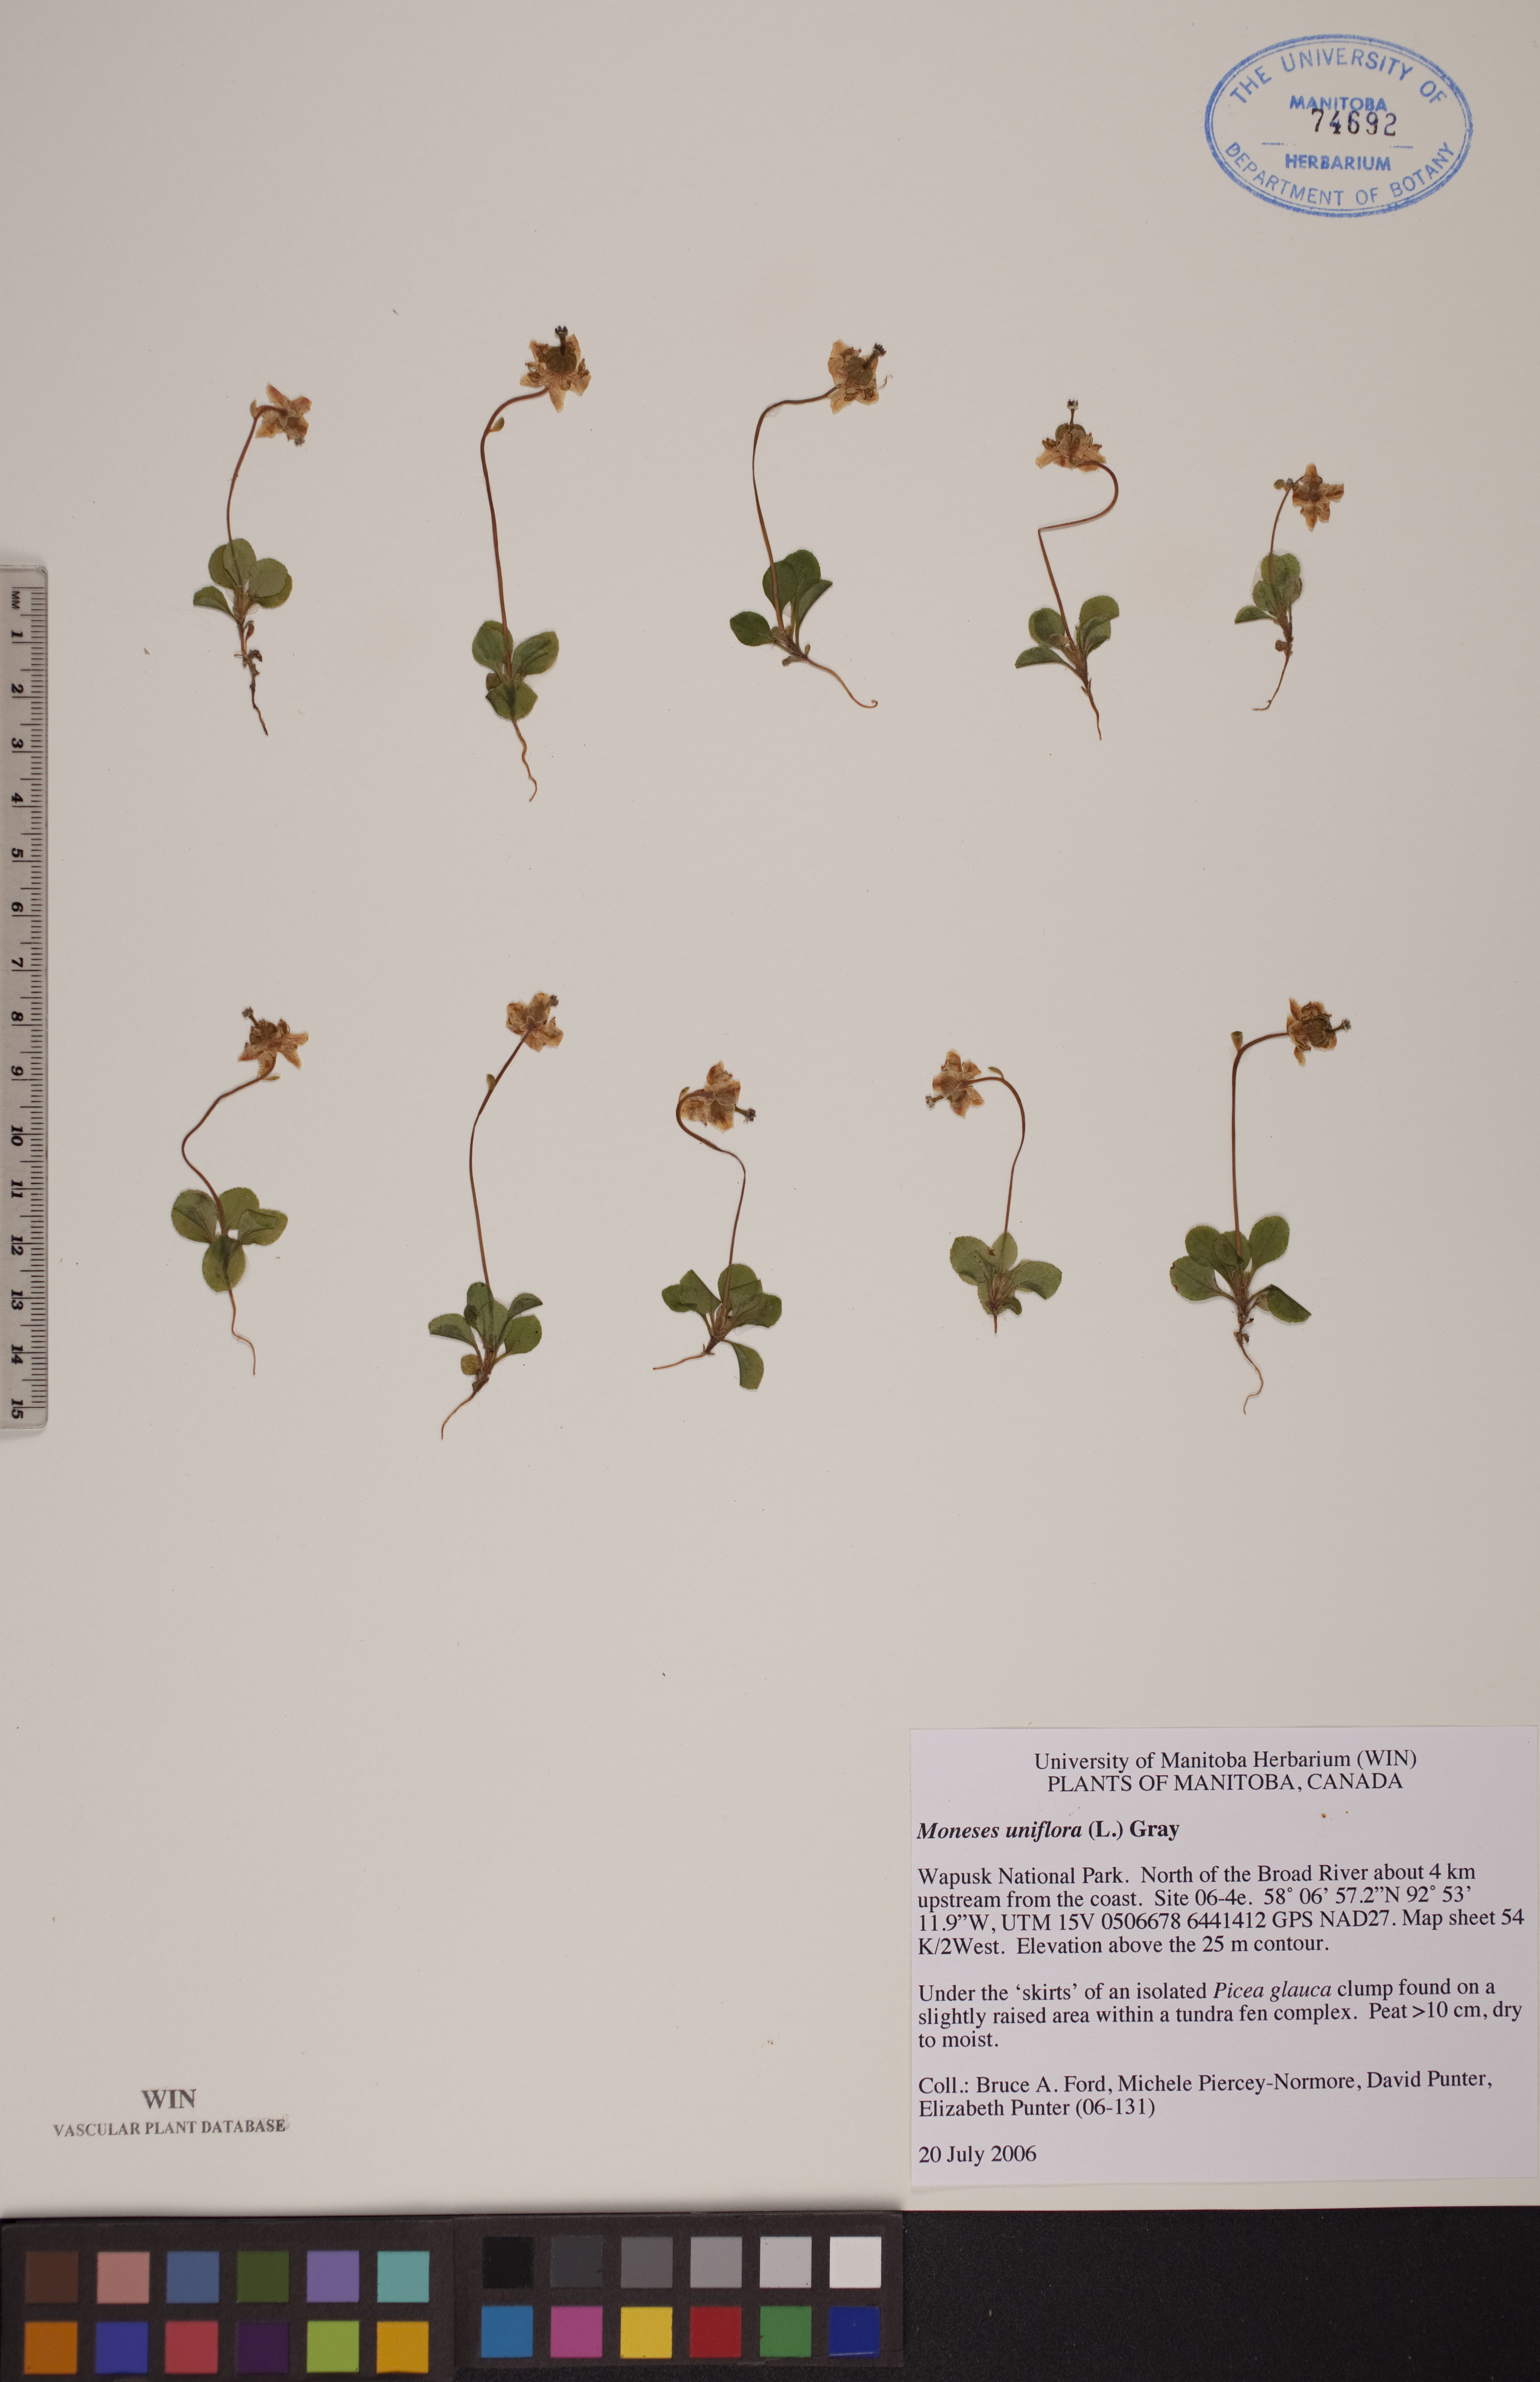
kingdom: Plantae
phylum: Tracheophyta
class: Magnoliopsida
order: Ericales
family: Ericaceae
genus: Moneses
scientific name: Moneses uniflora
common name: One-flowered wintergreen
